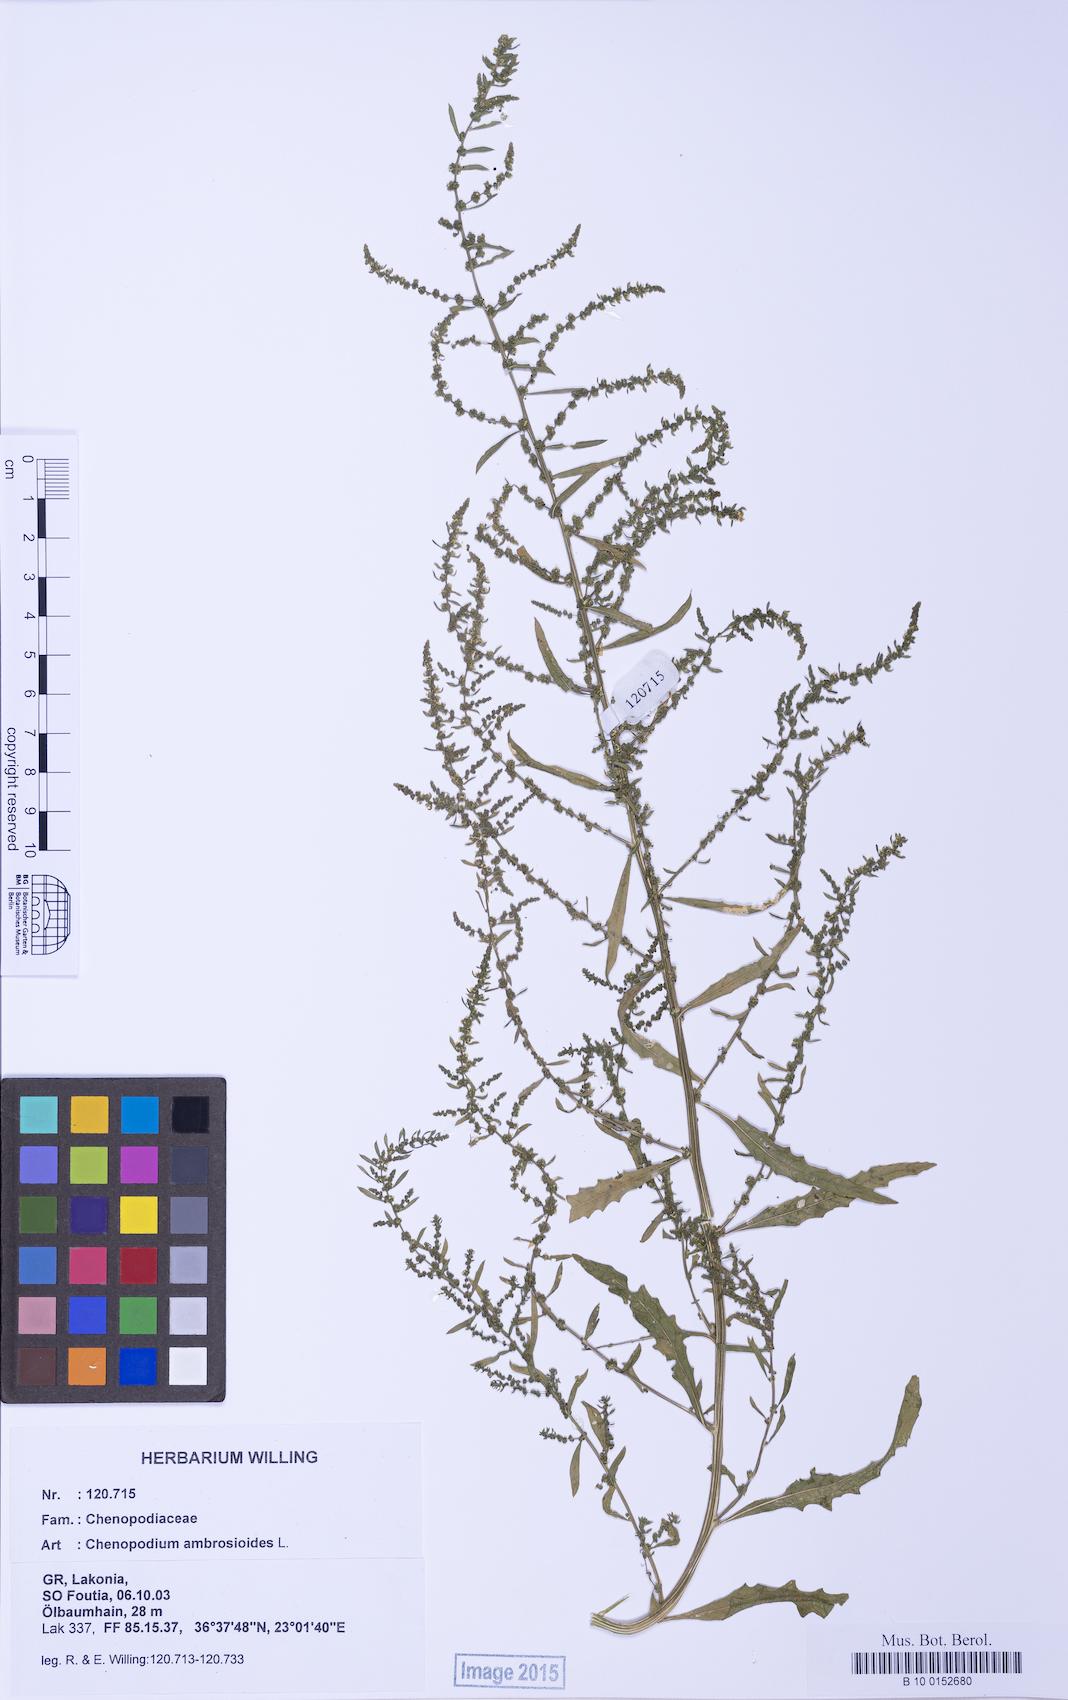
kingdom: Plantae
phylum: Tracheophyta
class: Magnoliopsida
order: Caryophyllales
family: Amaranthaceae
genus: Dysphania
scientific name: Dysphania ambrosioides
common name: Wormseed
